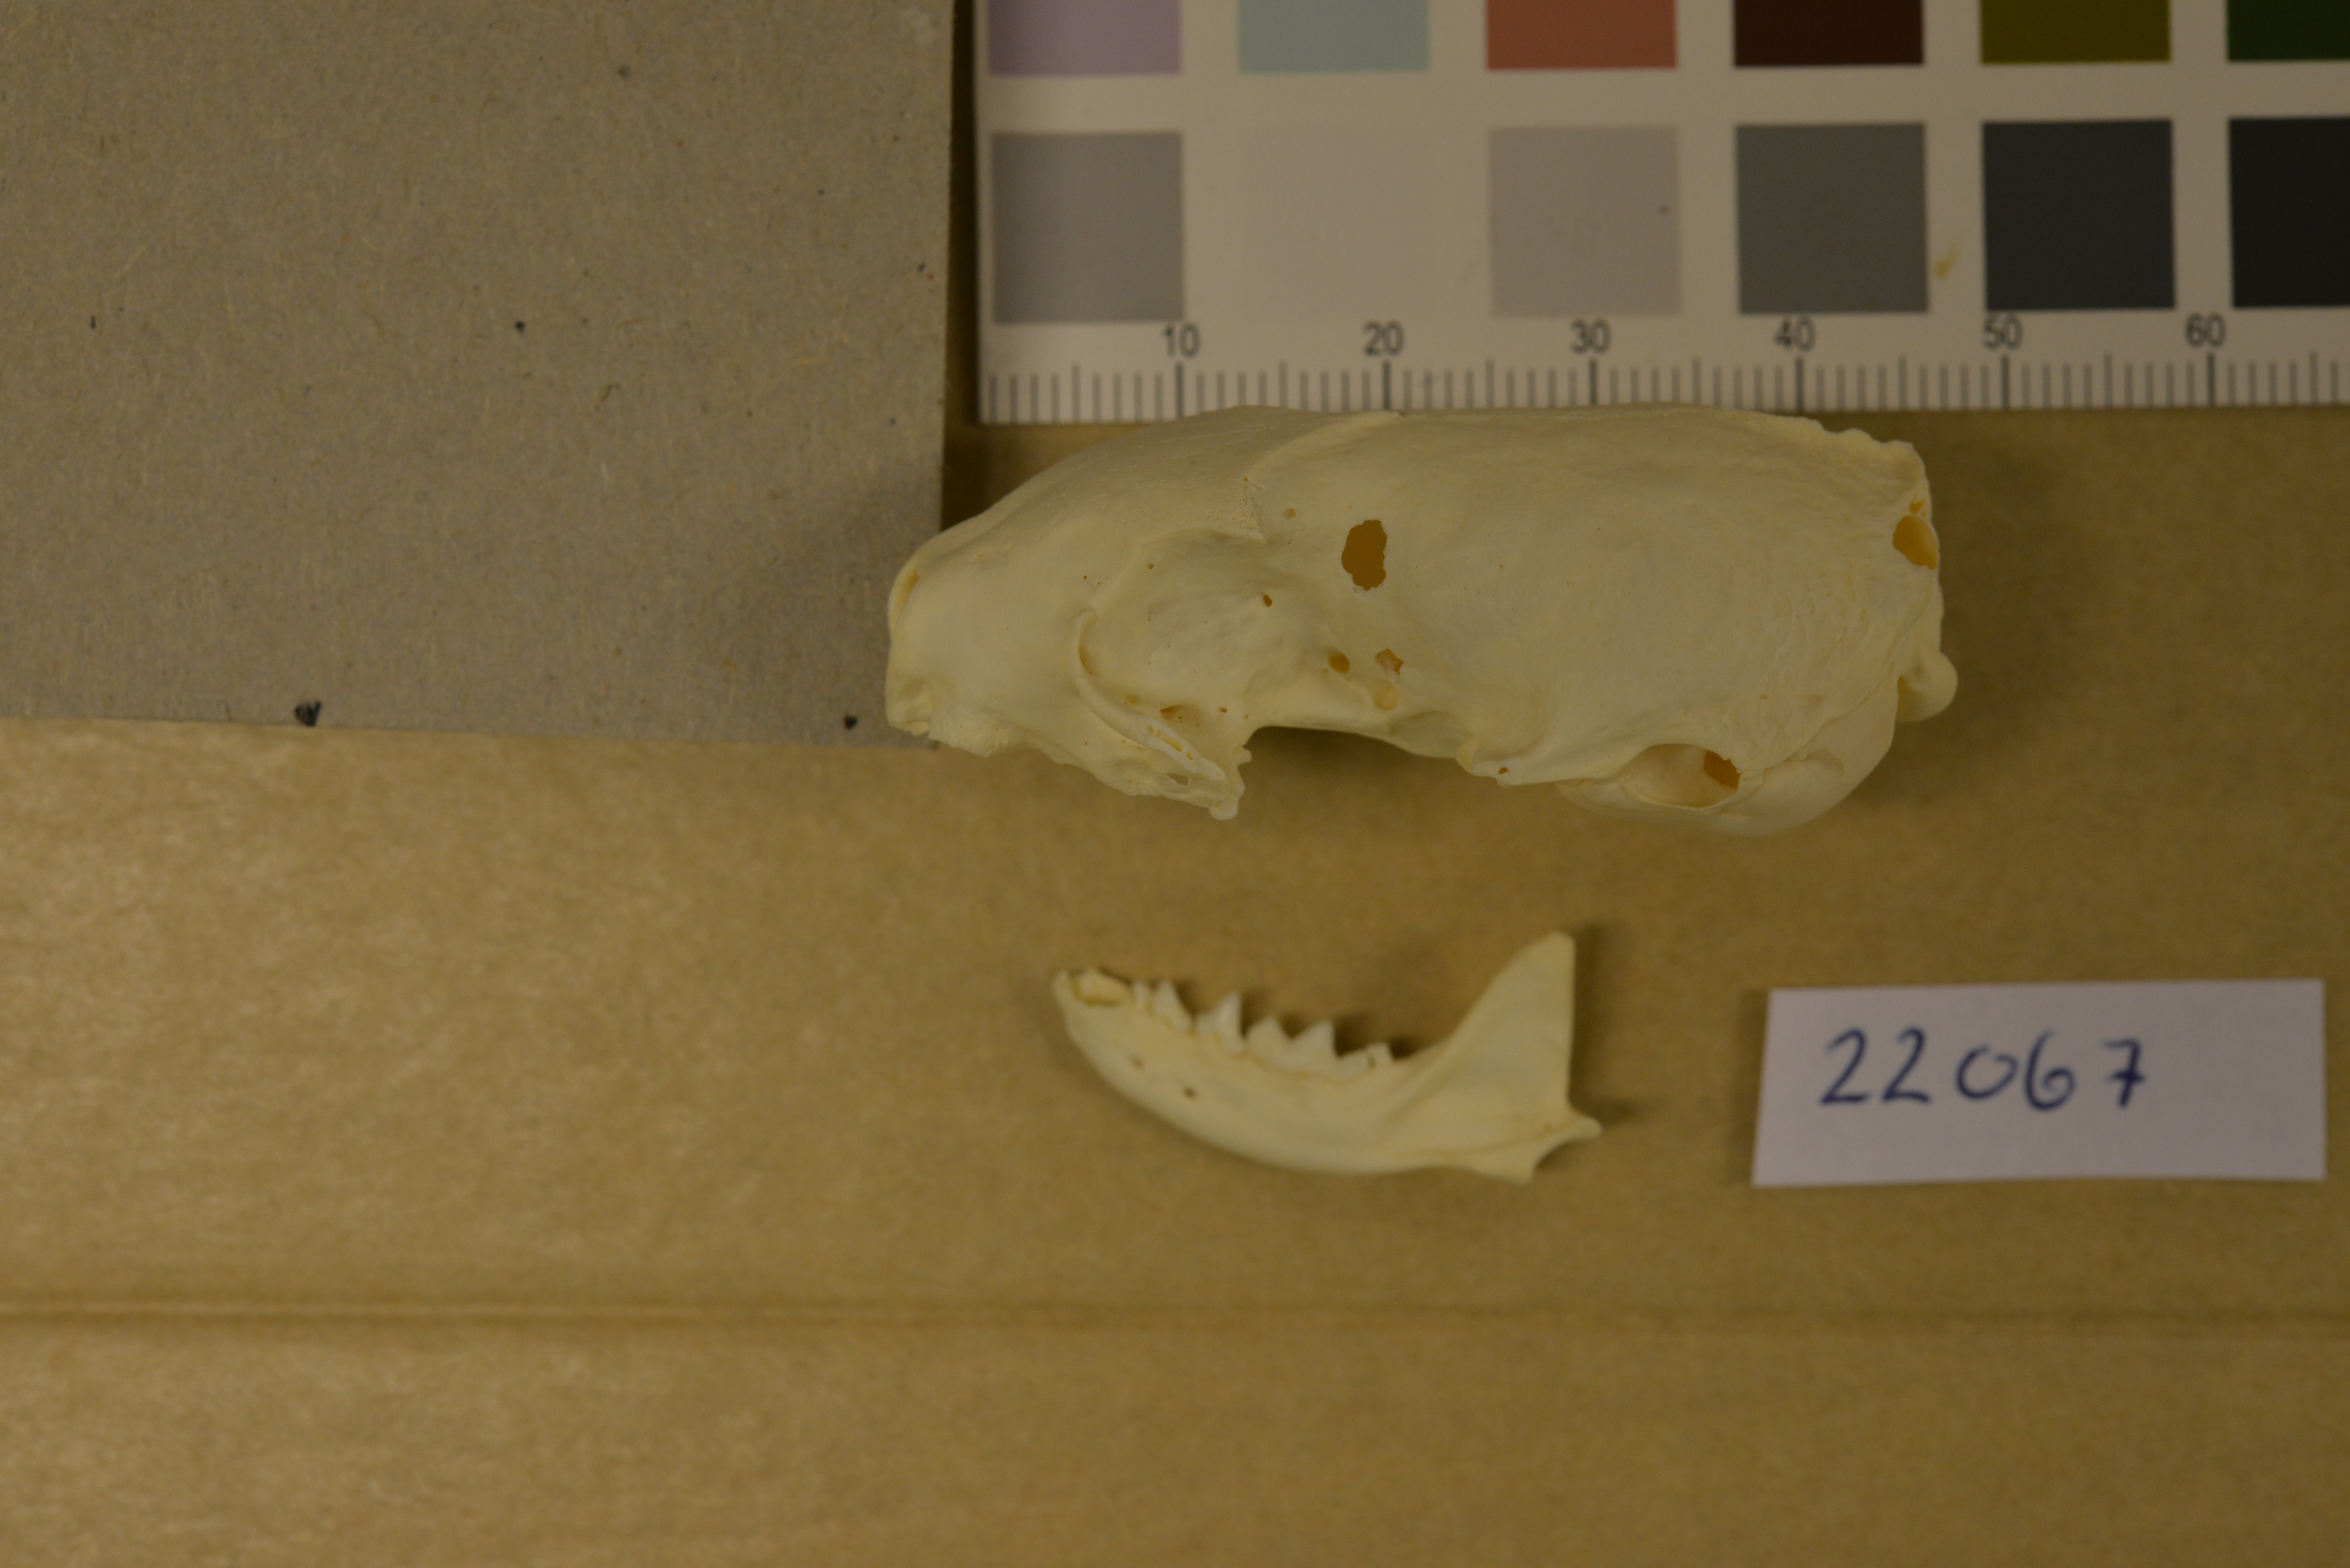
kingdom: Animalia
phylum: Chordata
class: Mammalia
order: Carnivora
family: Mustelidae
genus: Mustela
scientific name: Mustela erminea
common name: Stoat
